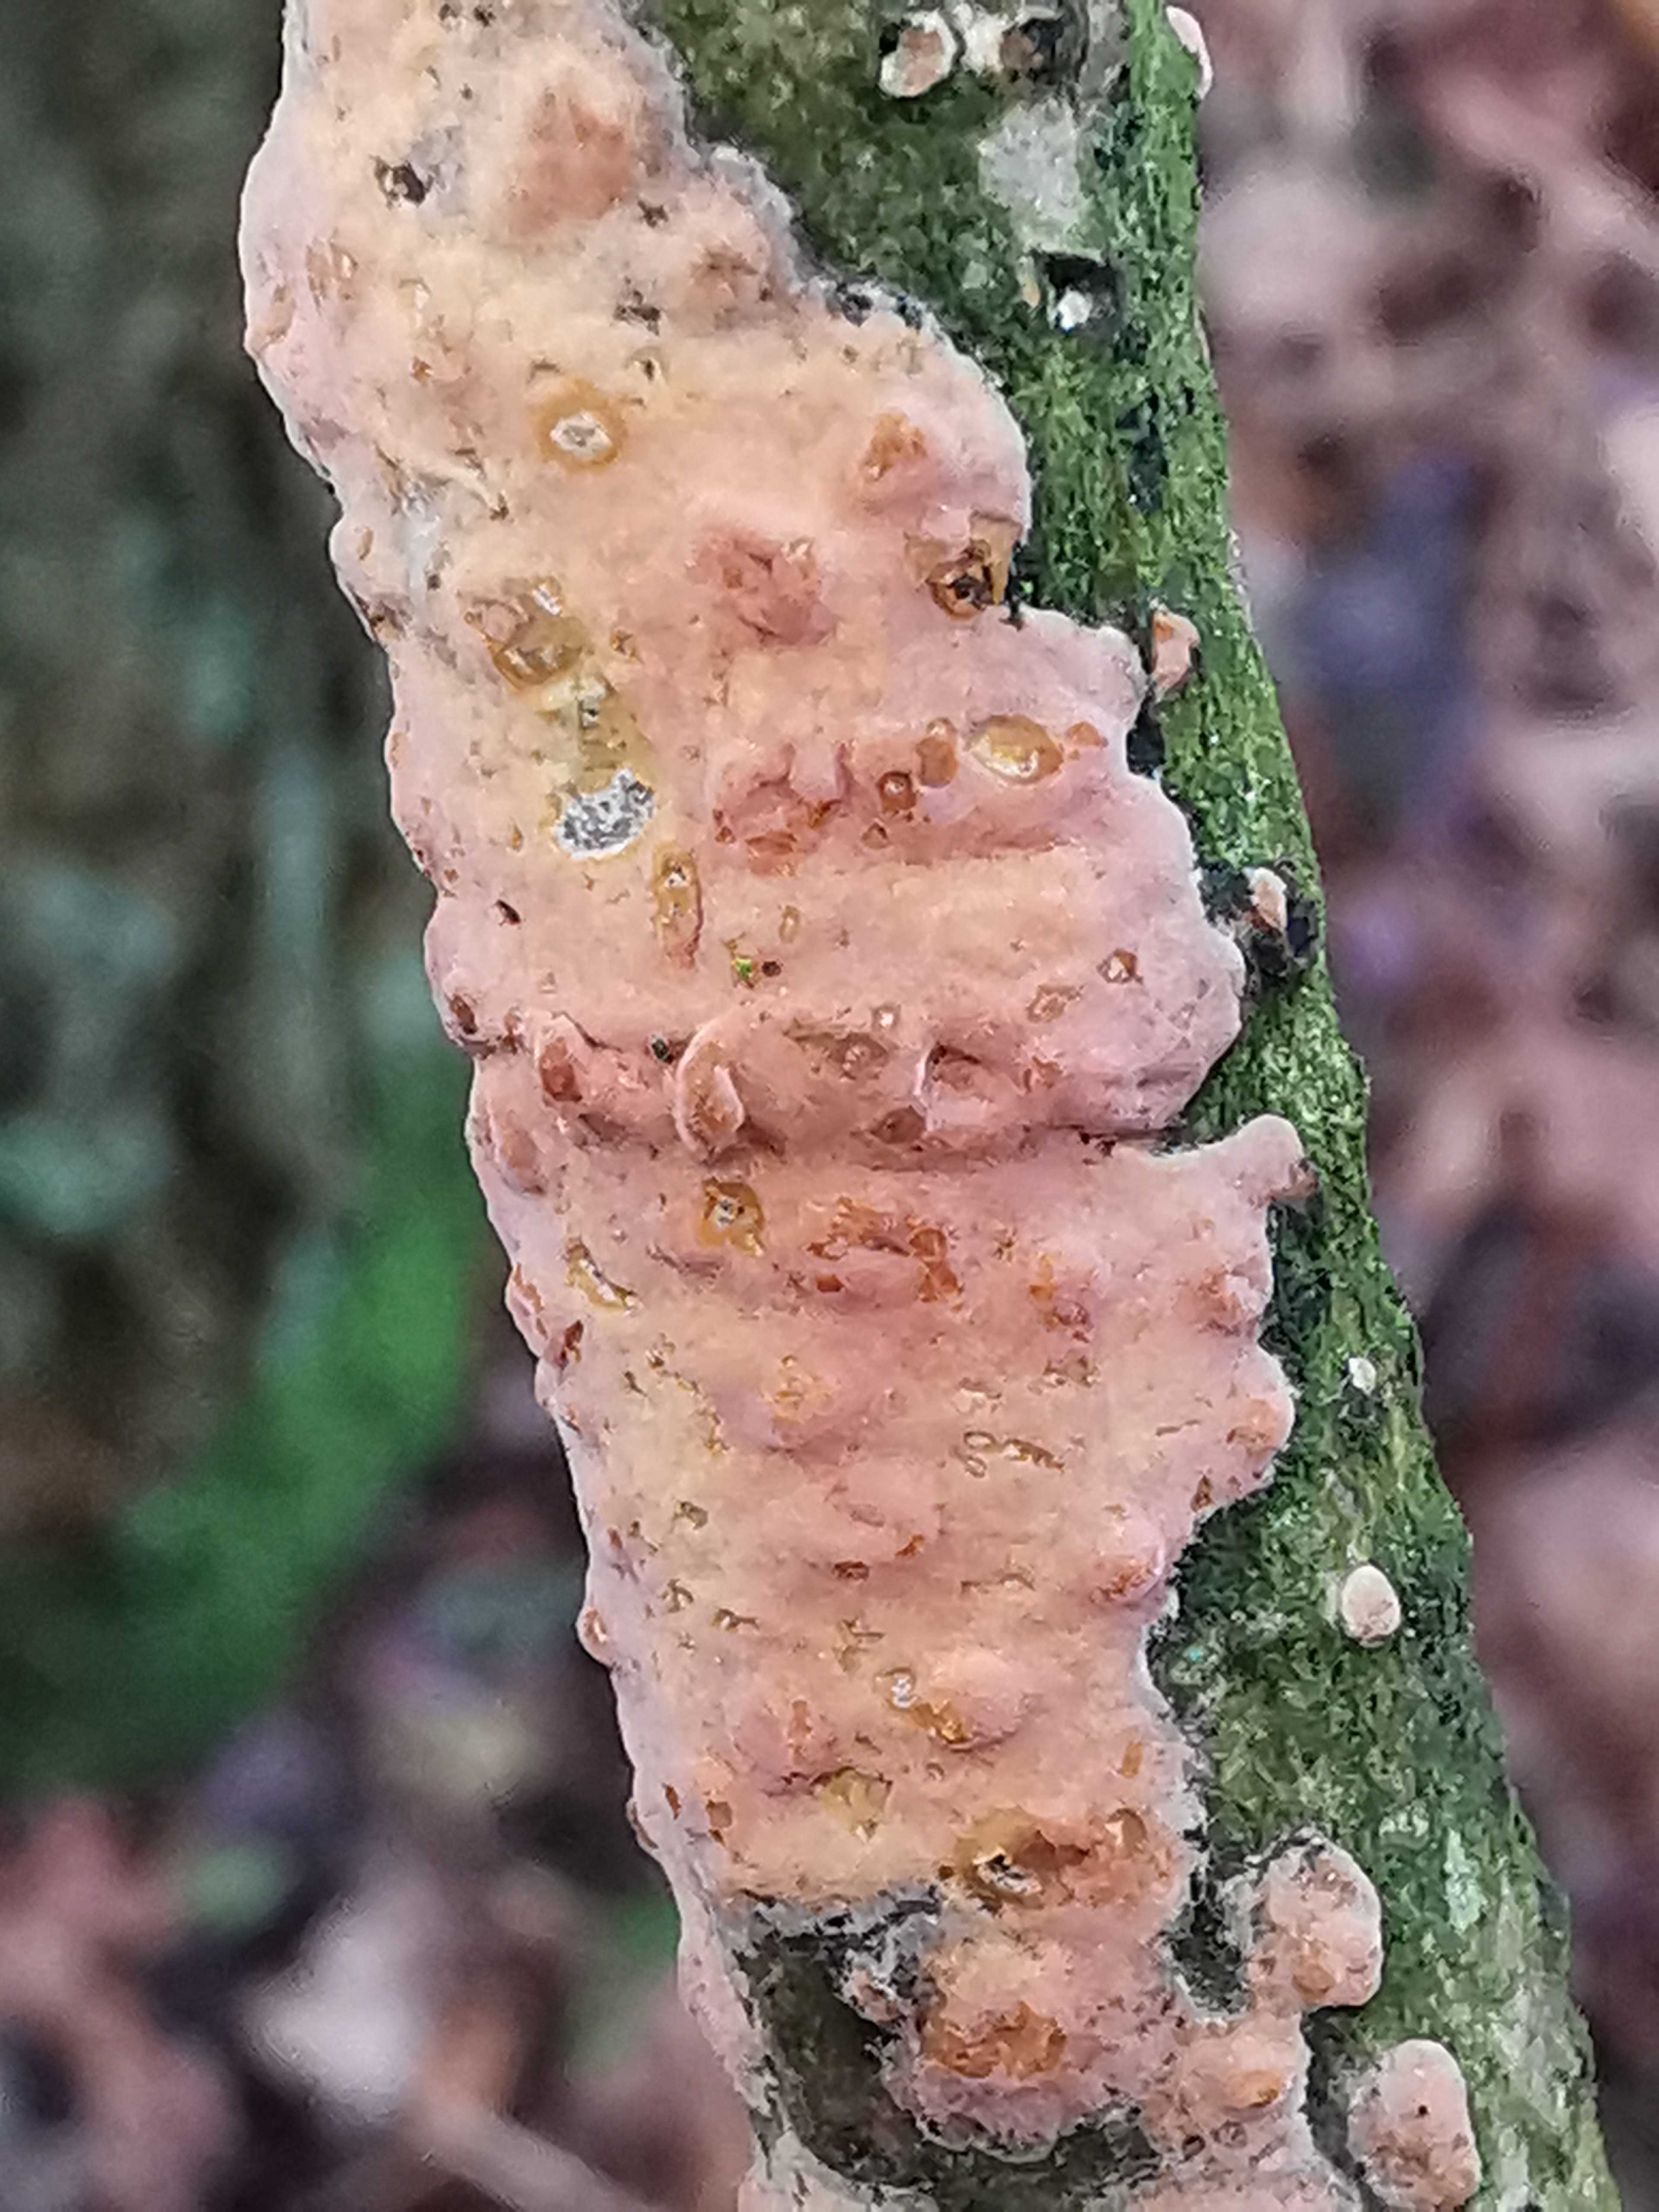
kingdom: Fungi
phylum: Basidiomycota
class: Agaricomycetes
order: Russulales
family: Peniophoraceae
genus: Peniophora
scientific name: Peniophora incarnata
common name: laksefarvet voksskind
